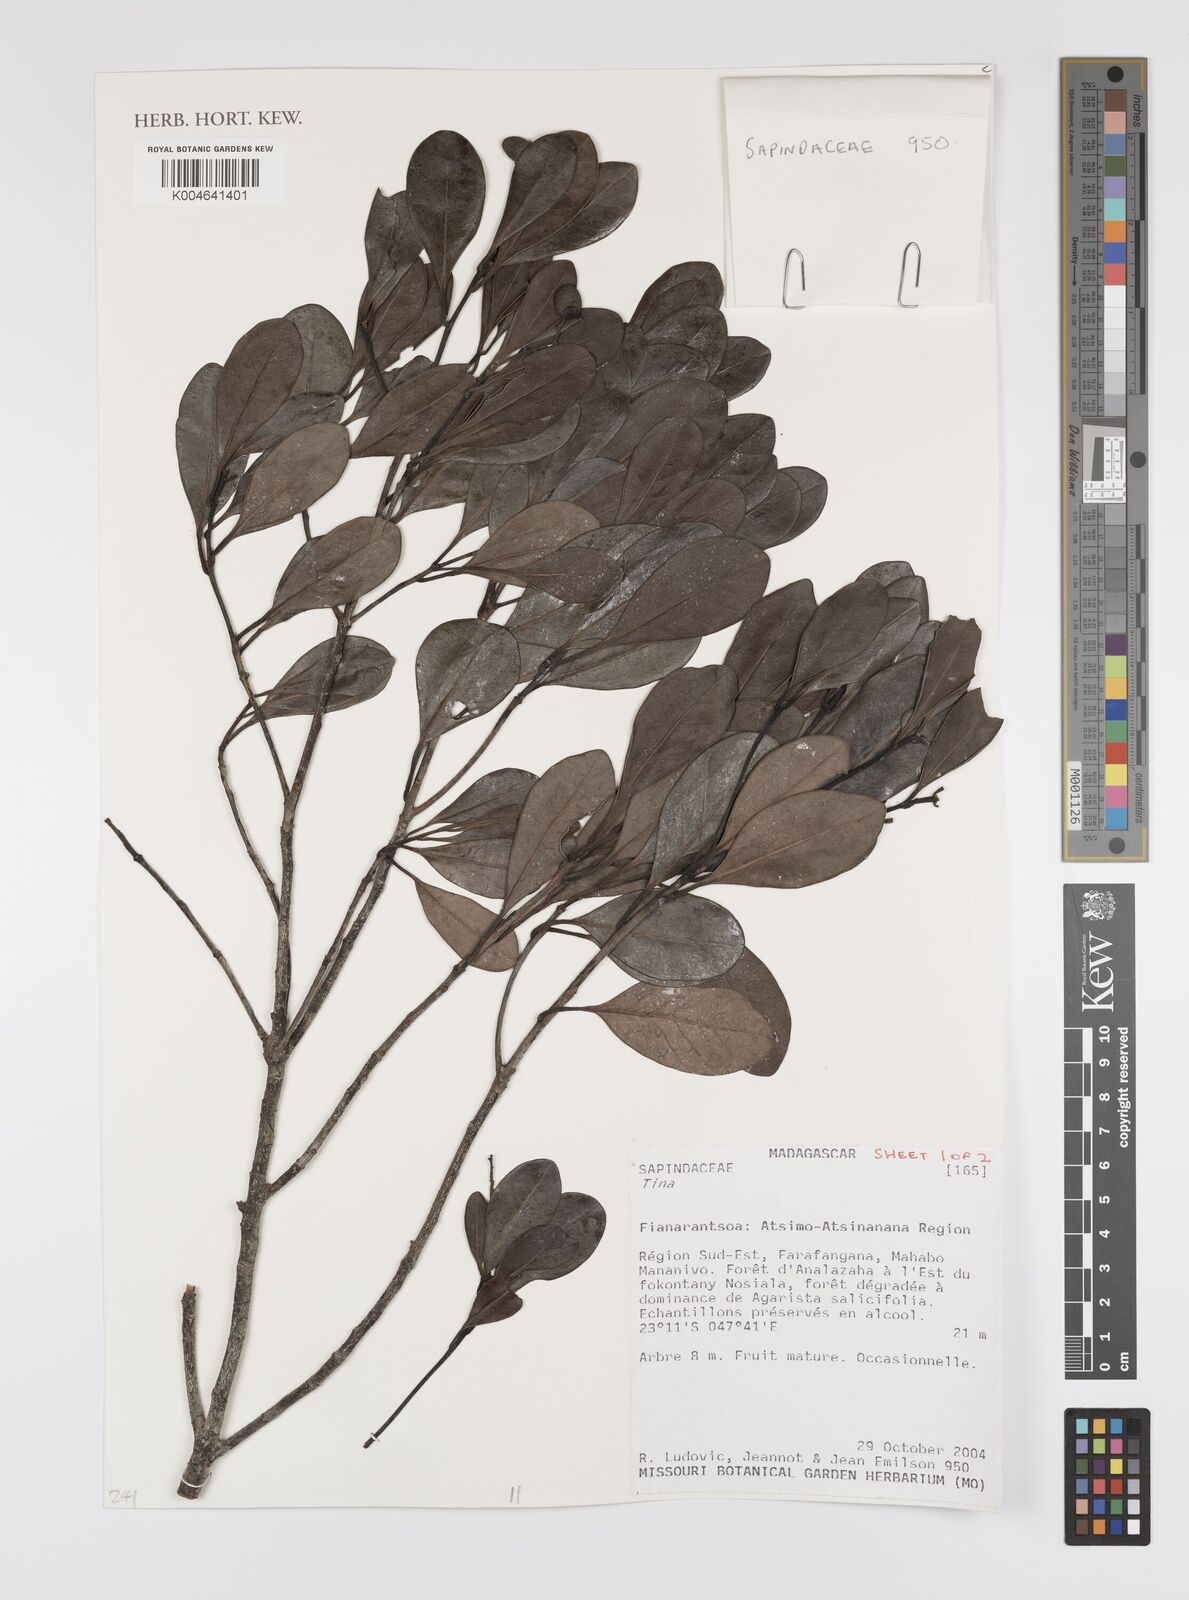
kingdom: Plantae
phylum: Tracheophyta
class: Magnoliopsida
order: Sapindales
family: Sapindaceae
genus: Tina
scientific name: Tina
